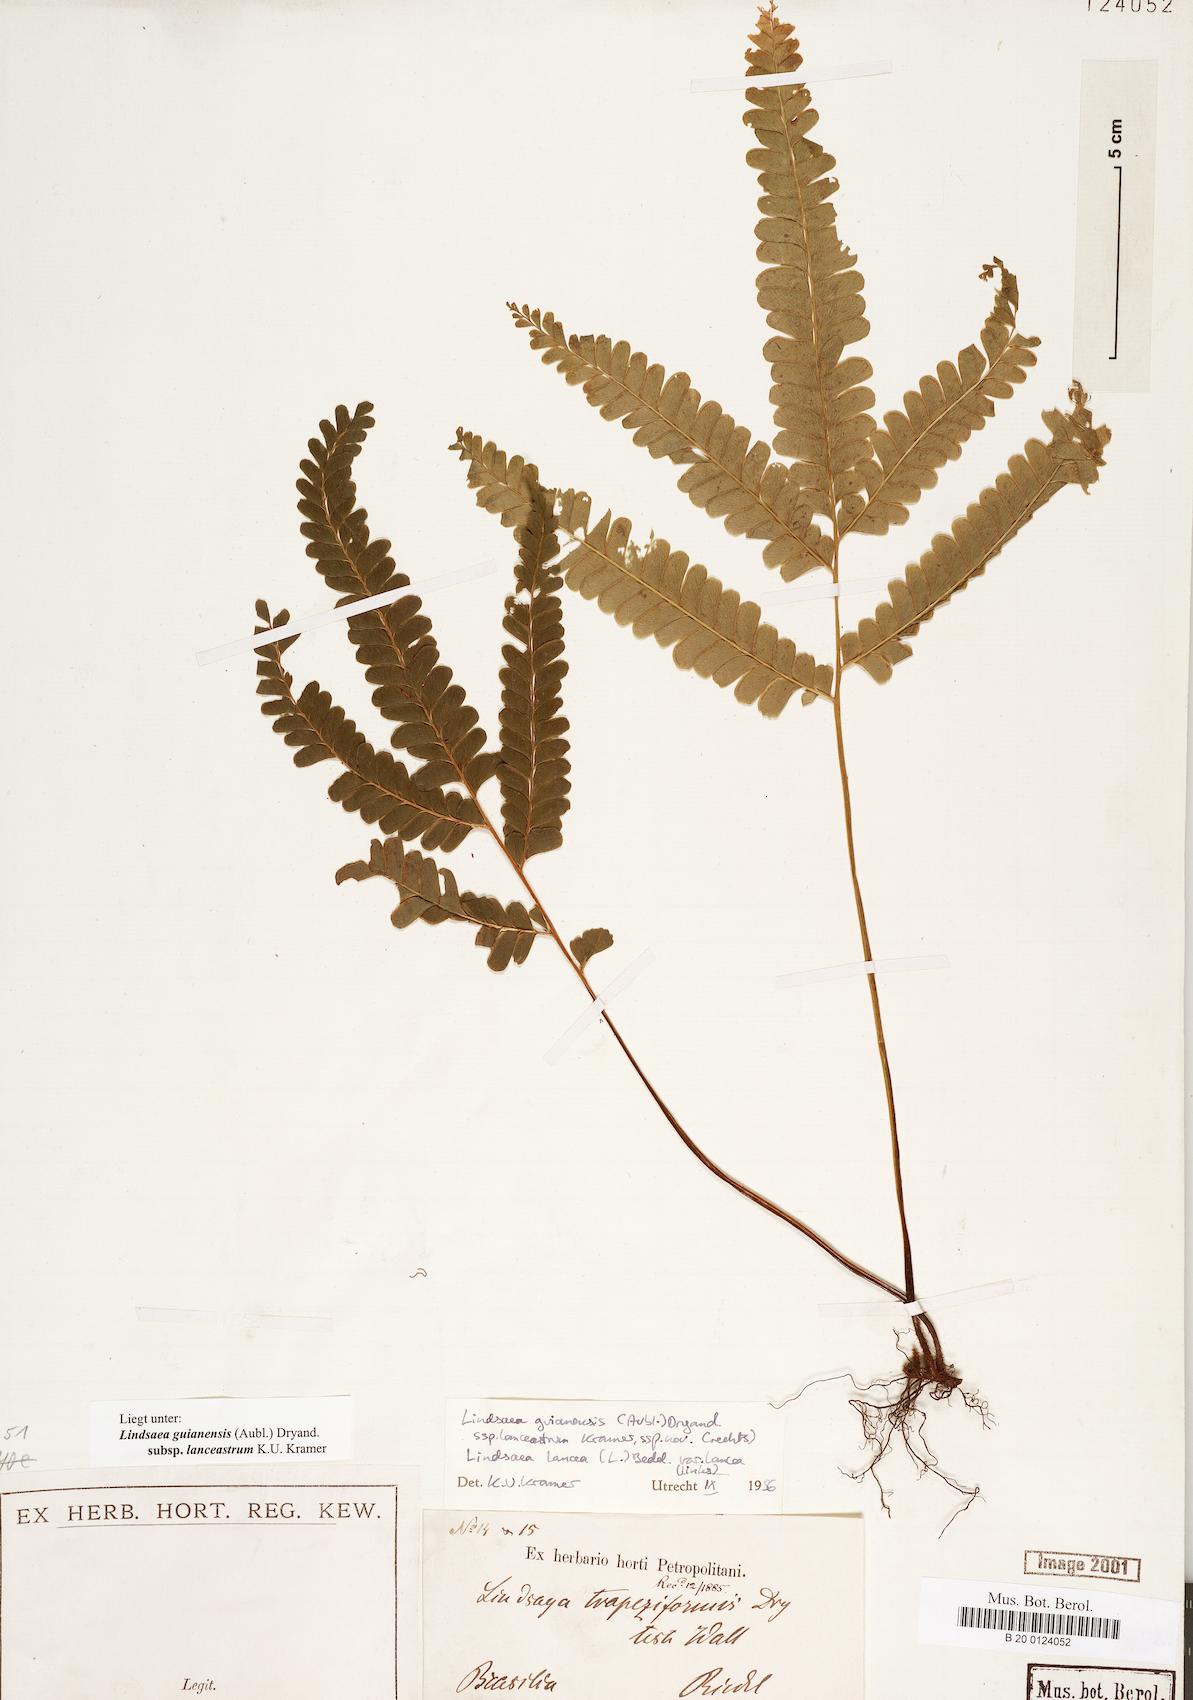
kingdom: Plantae
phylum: Tracheophyta
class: Polypodiopsida
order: Polypodiales
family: Lindsaeaceae
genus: Lindsaea
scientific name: Lindsaea guianensis
